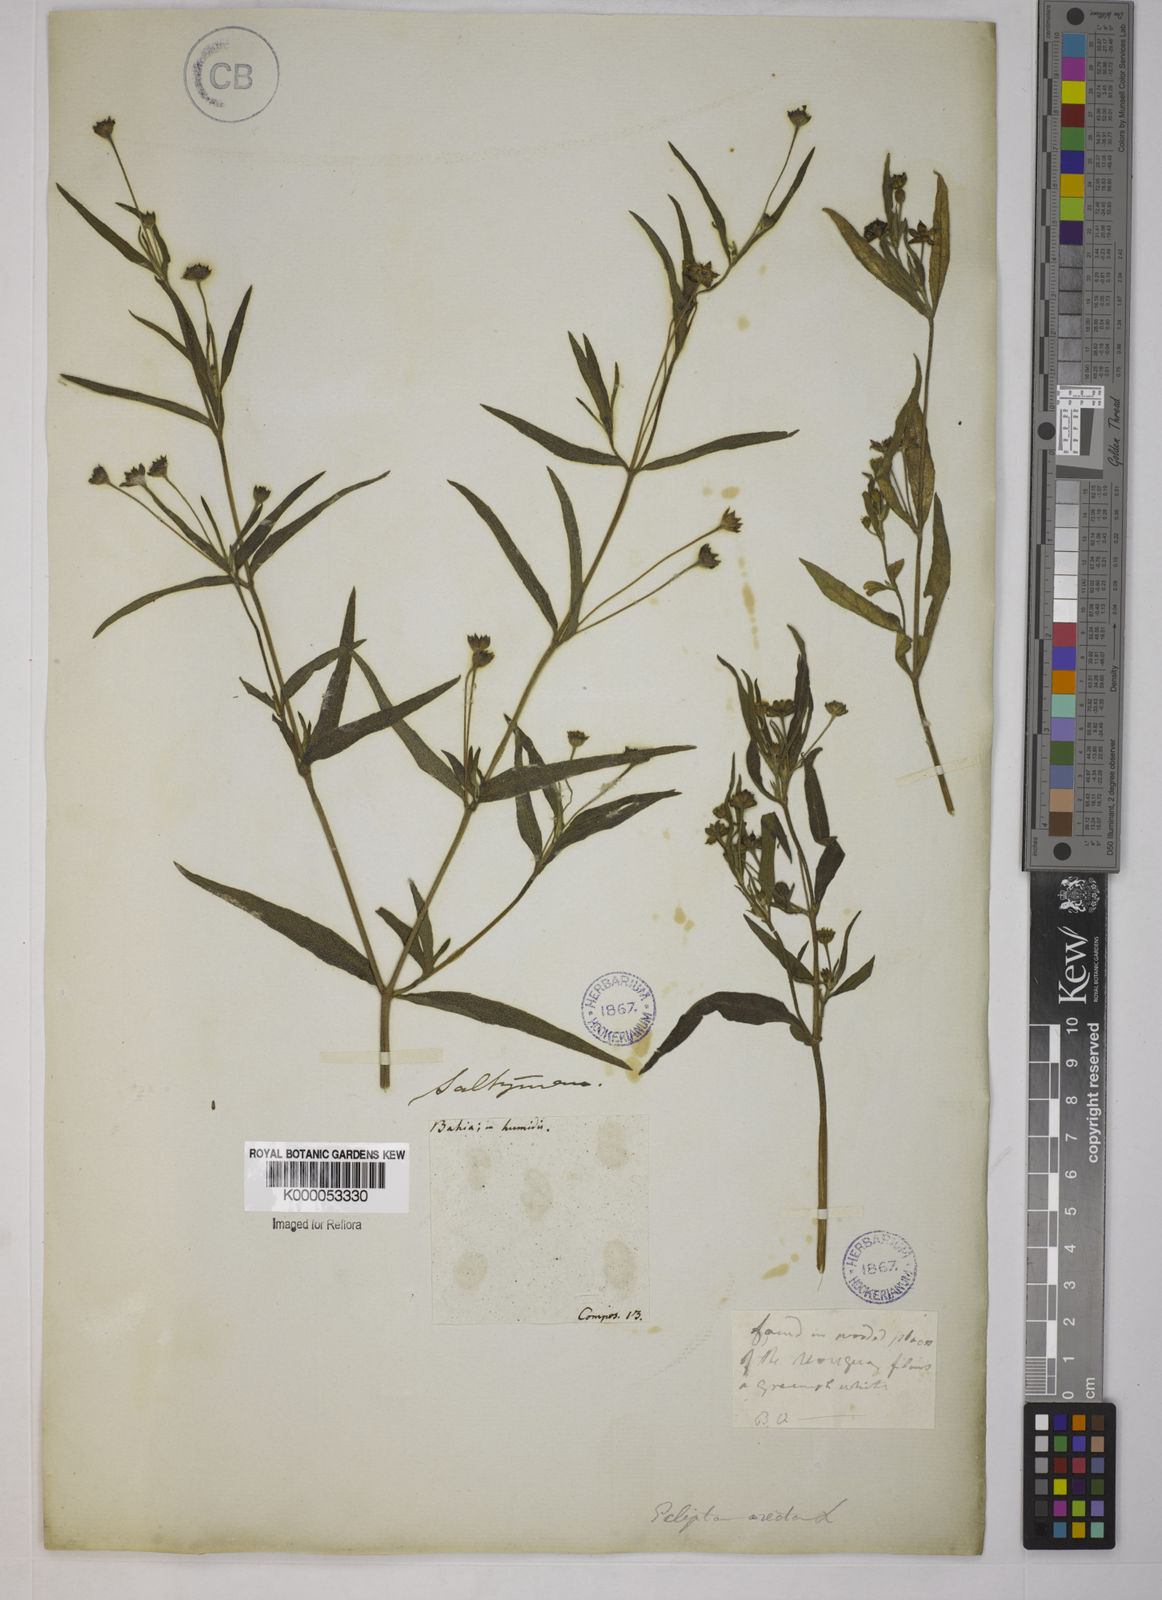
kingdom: Plantae
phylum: Tracheophyta
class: Magnoliopsida
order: Asterales
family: Asteraceae
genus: Eclipta
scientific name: Eclipta prostrata
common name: False daisy
